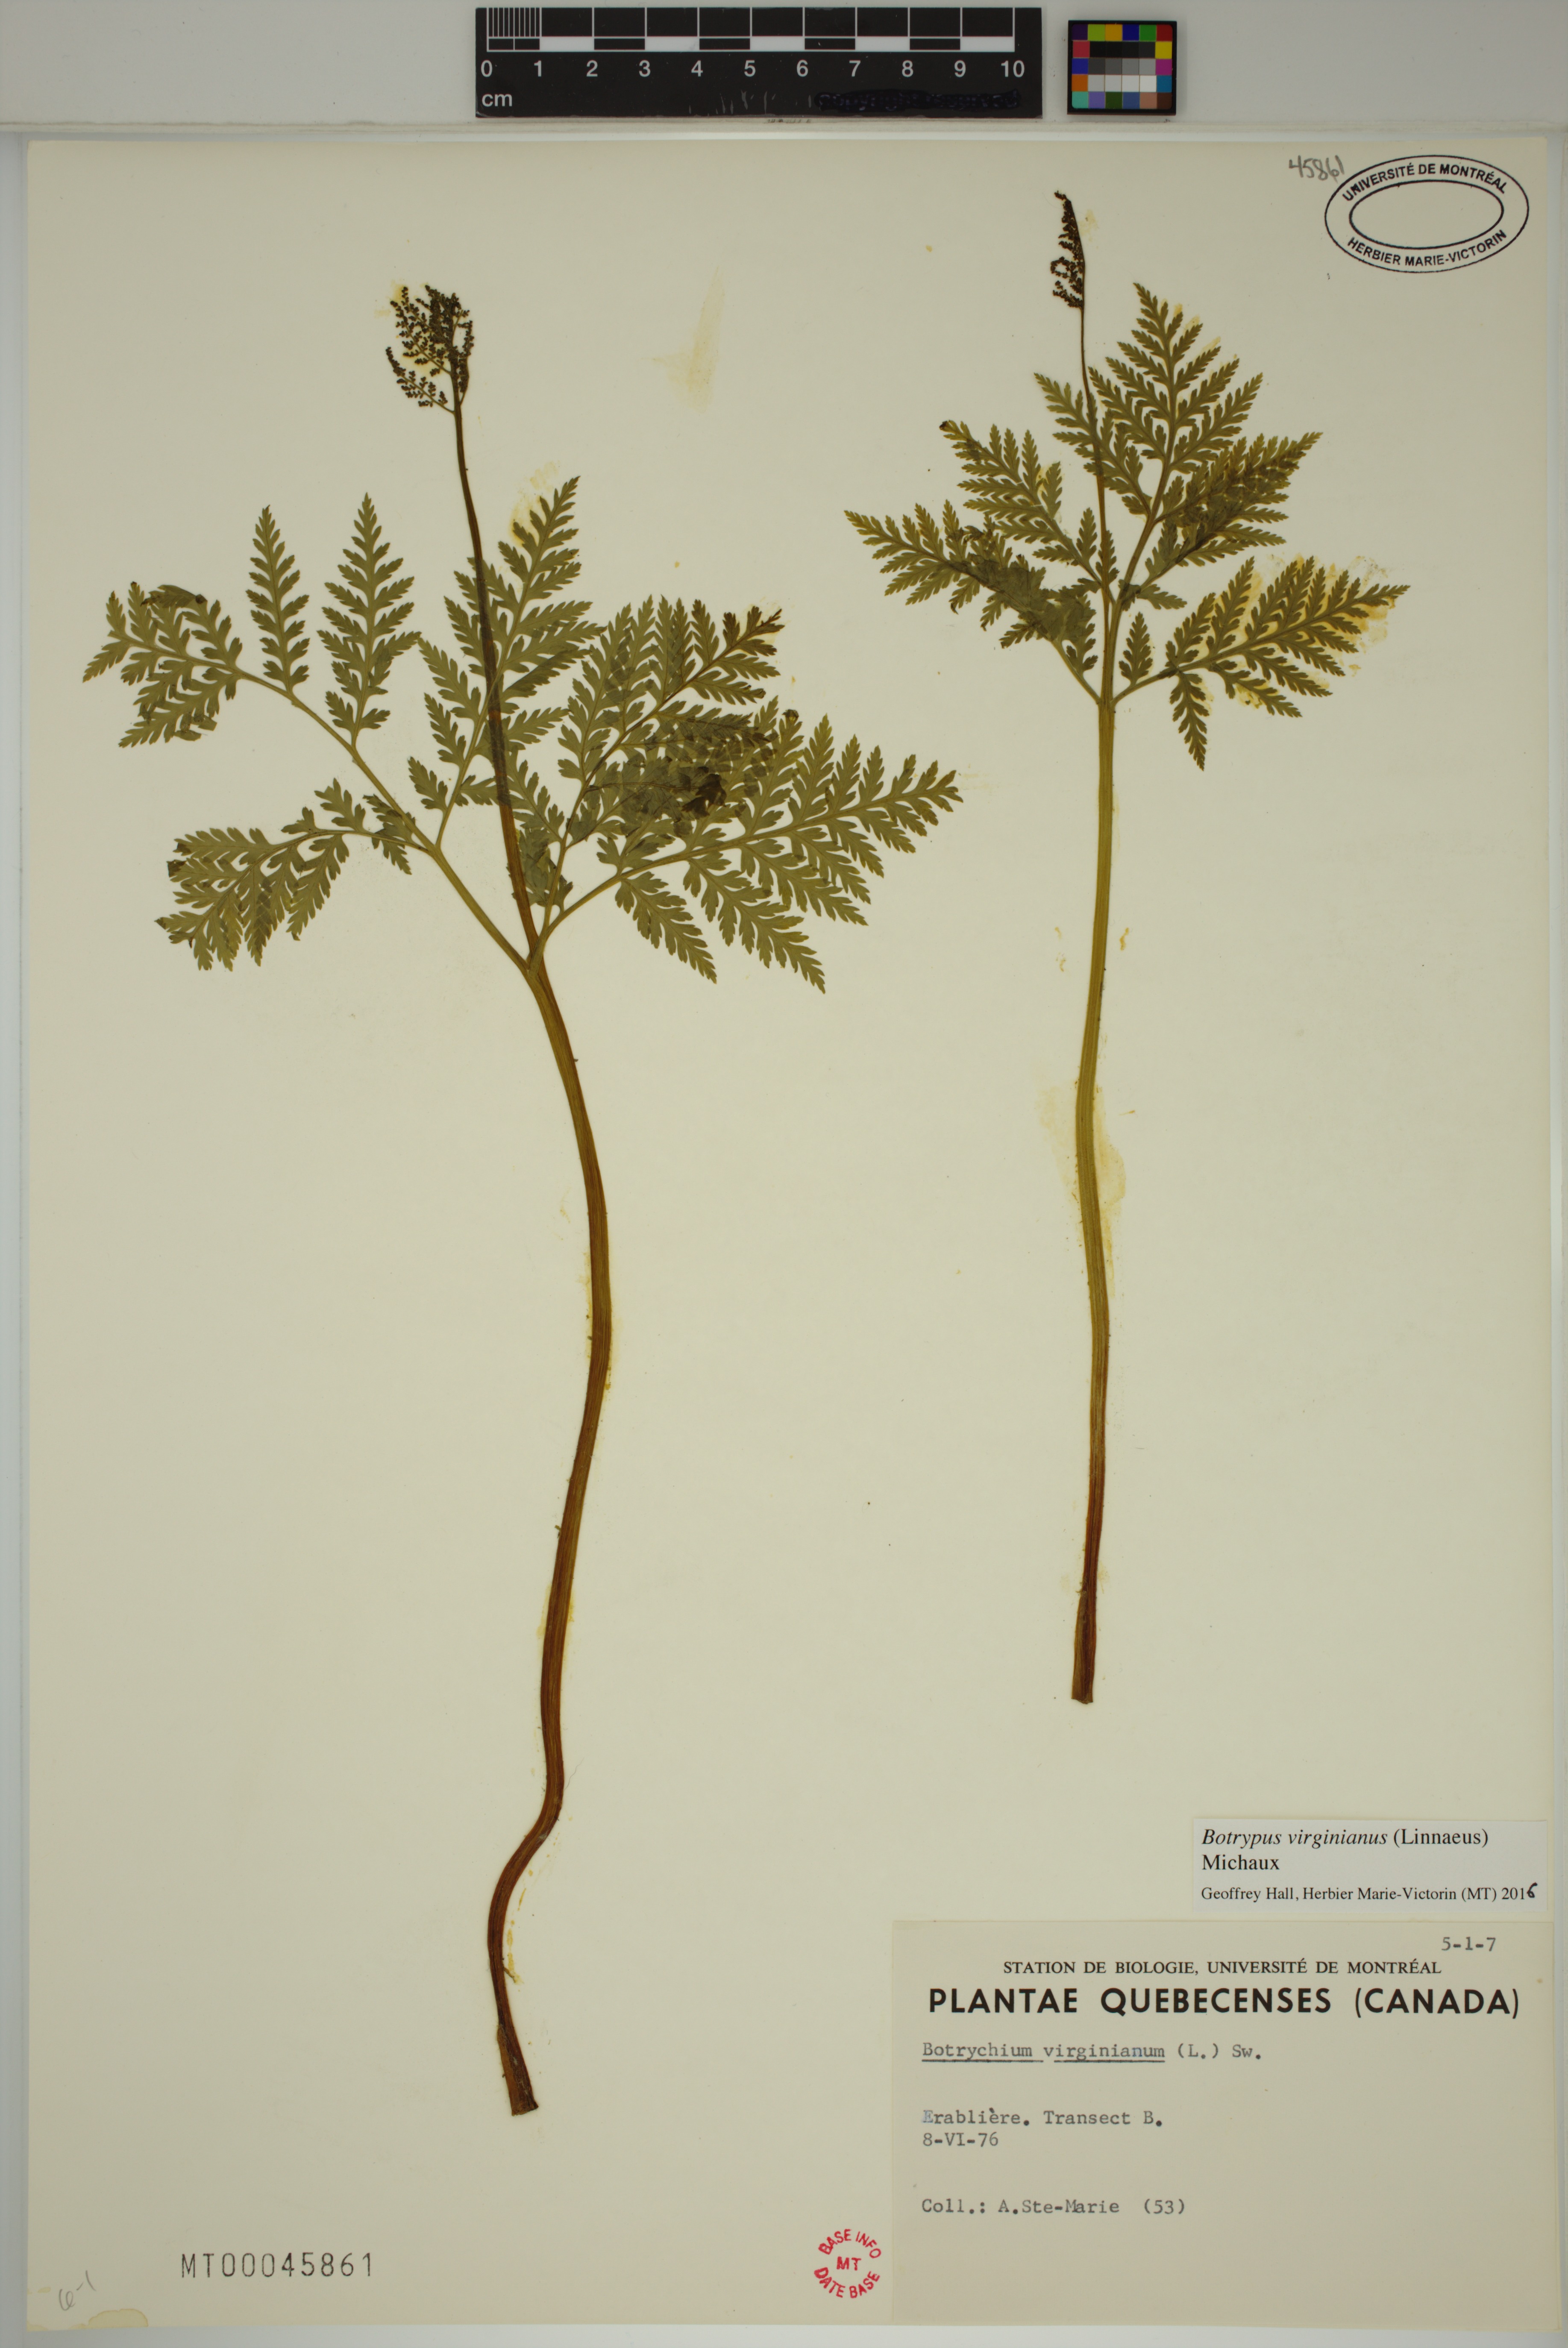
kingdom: Plantae
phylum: Tracheophyta
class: Polypodiopsida
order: Ophioglossales
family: Ophioglossaceae
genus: Botrypus
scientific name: Botrypus virginianus
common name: Common grapefern
